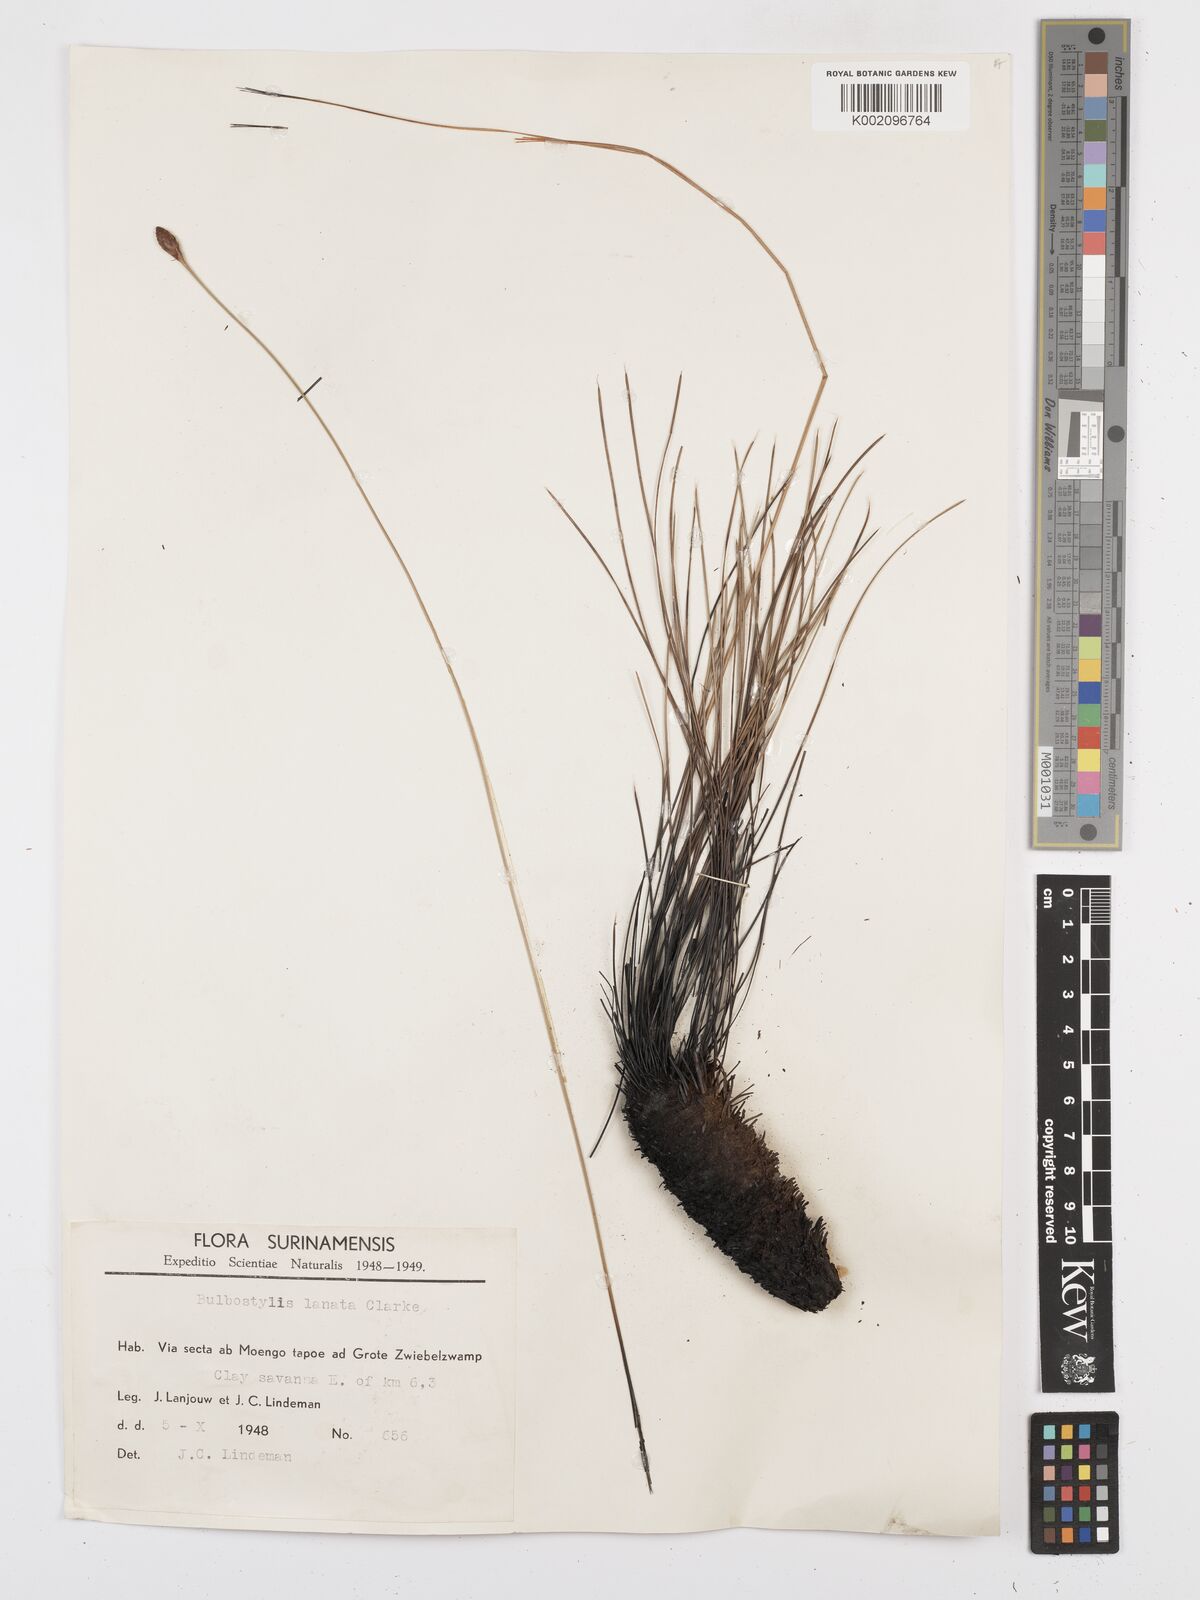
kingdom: Plantae
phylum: Tracheophyta
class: Liliopsida
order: Poales
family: Cyperaceae
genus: Bulbostylis
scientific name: Bulbostylis
